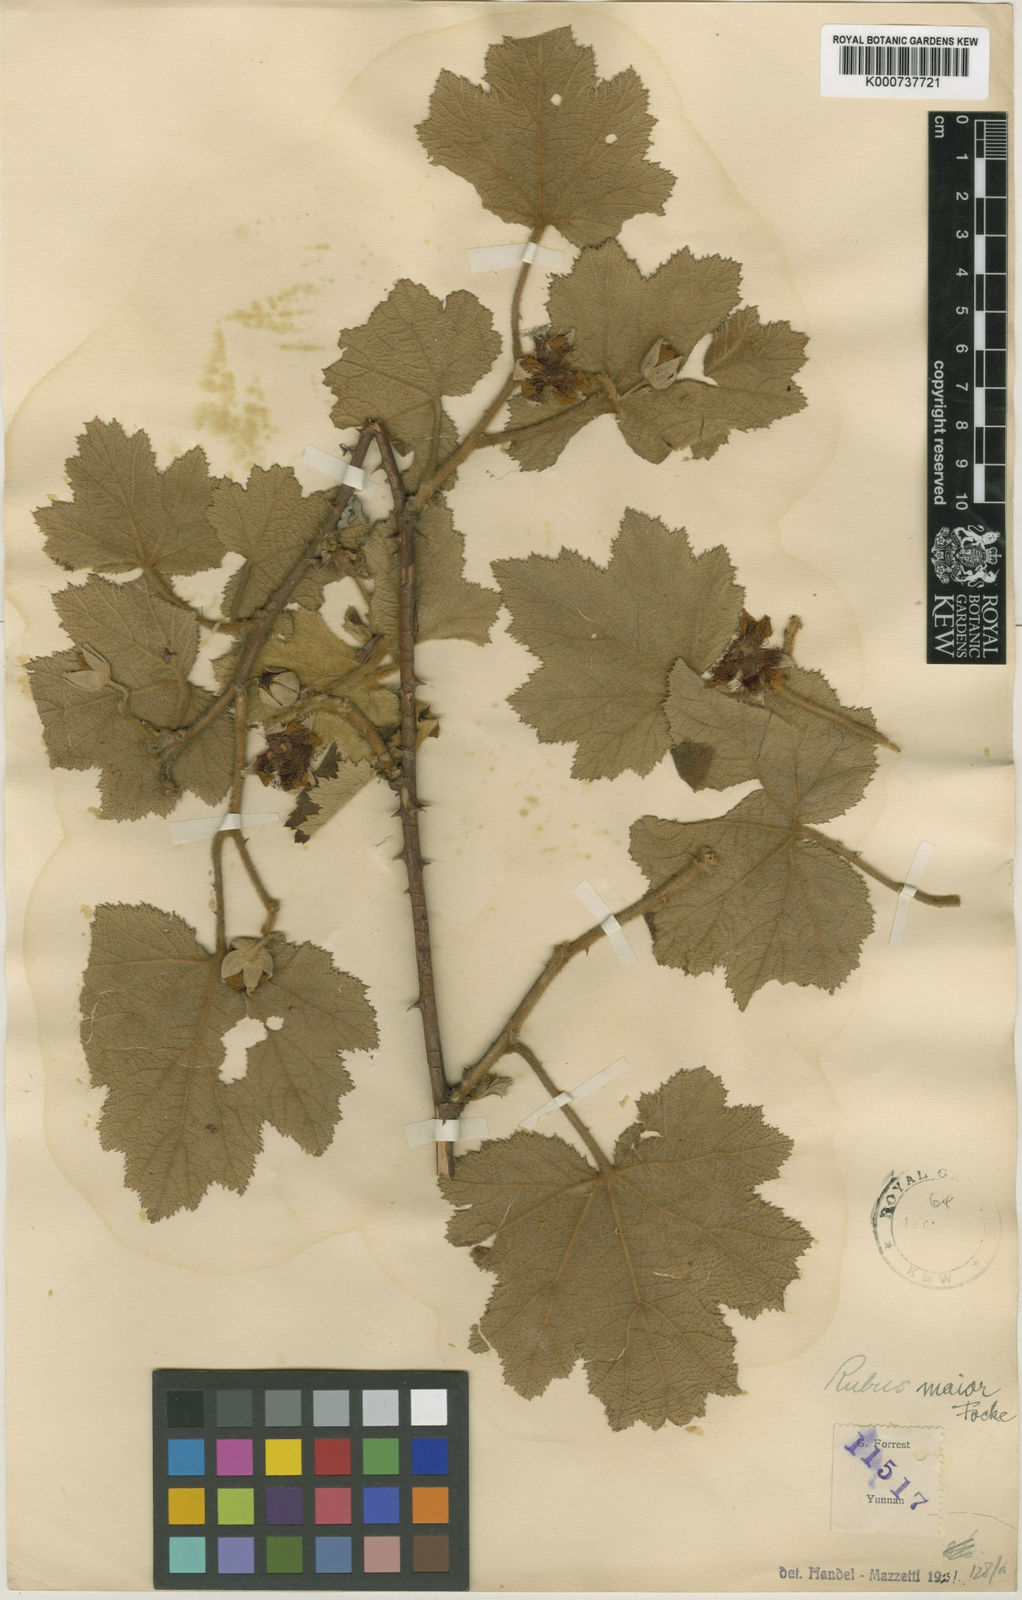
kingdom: Plantae
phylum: Tracheophyta
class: Magnoliopsida
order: Rosales
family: Rosaceae
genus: Rubus
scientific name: Rubus setchuenensis
